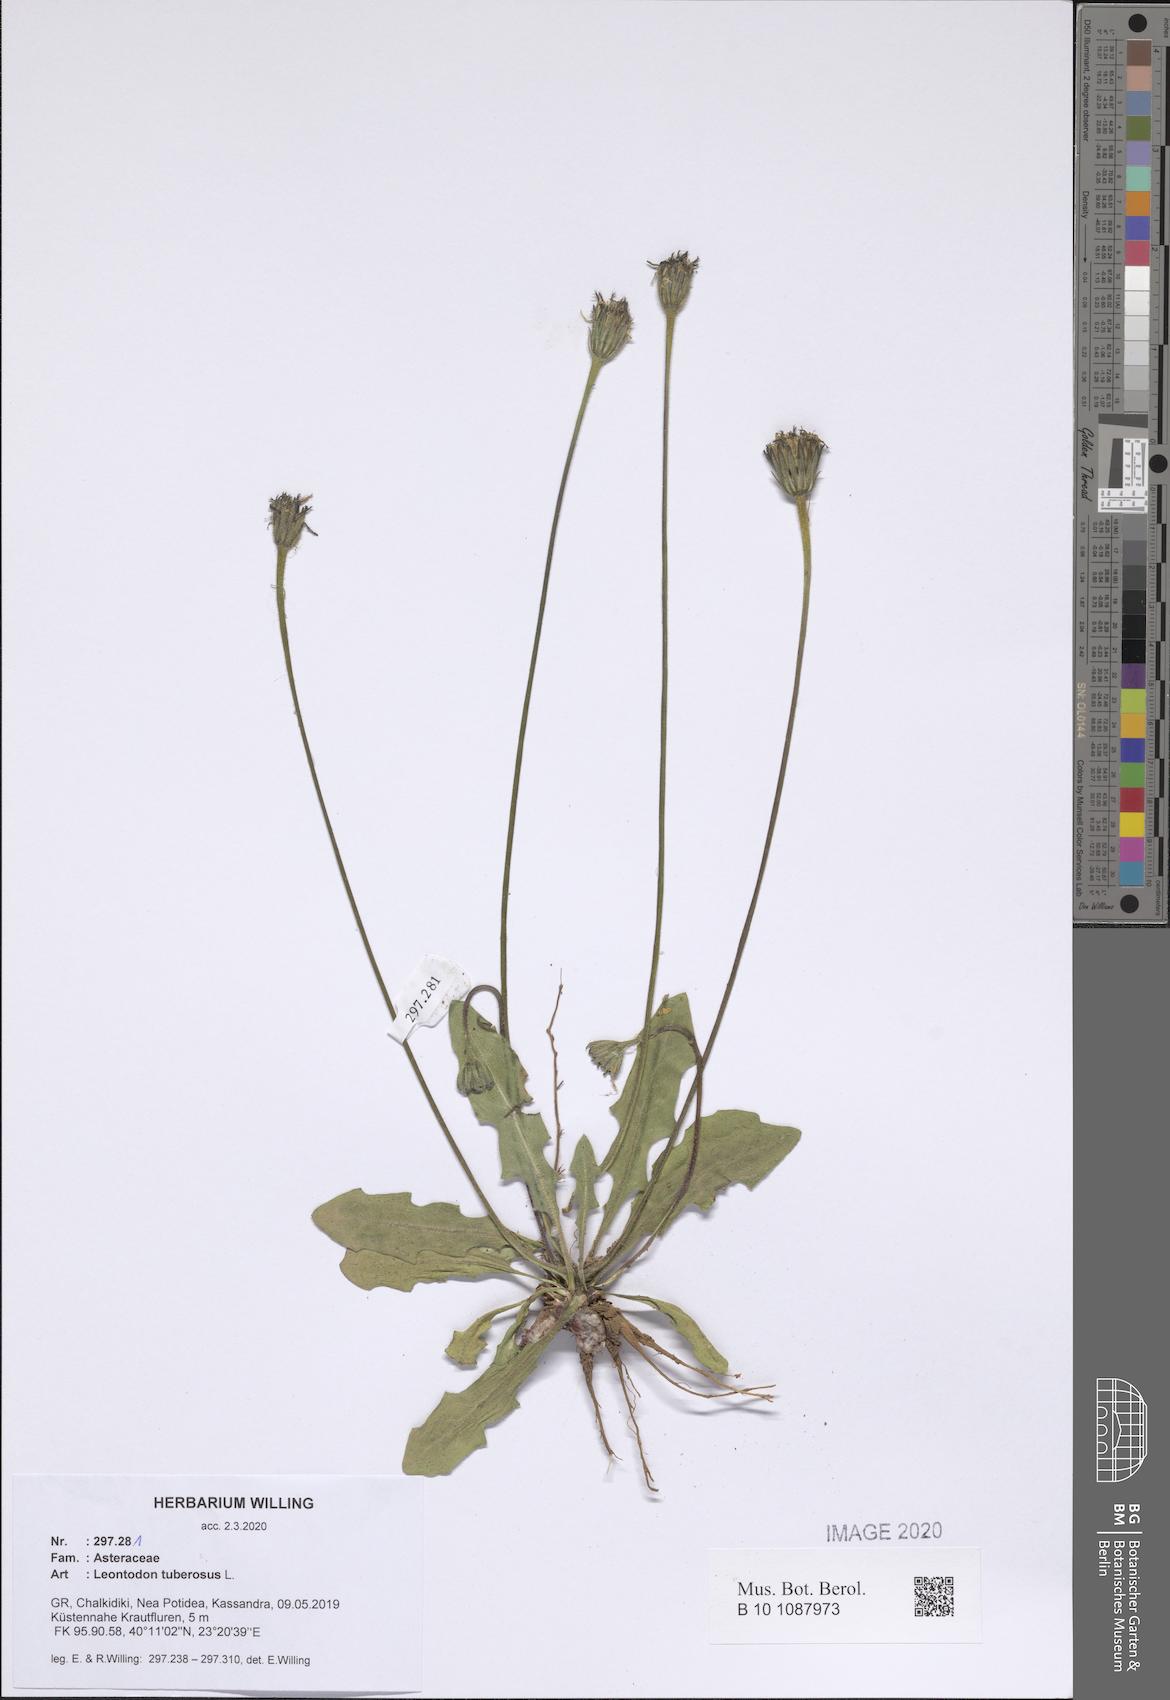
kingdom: Plantae
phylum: Tracheophyta
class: Magnoliopsida
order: Asterales
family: Asteraceae
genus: Thrincia
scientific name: Thrincia tuberosa
